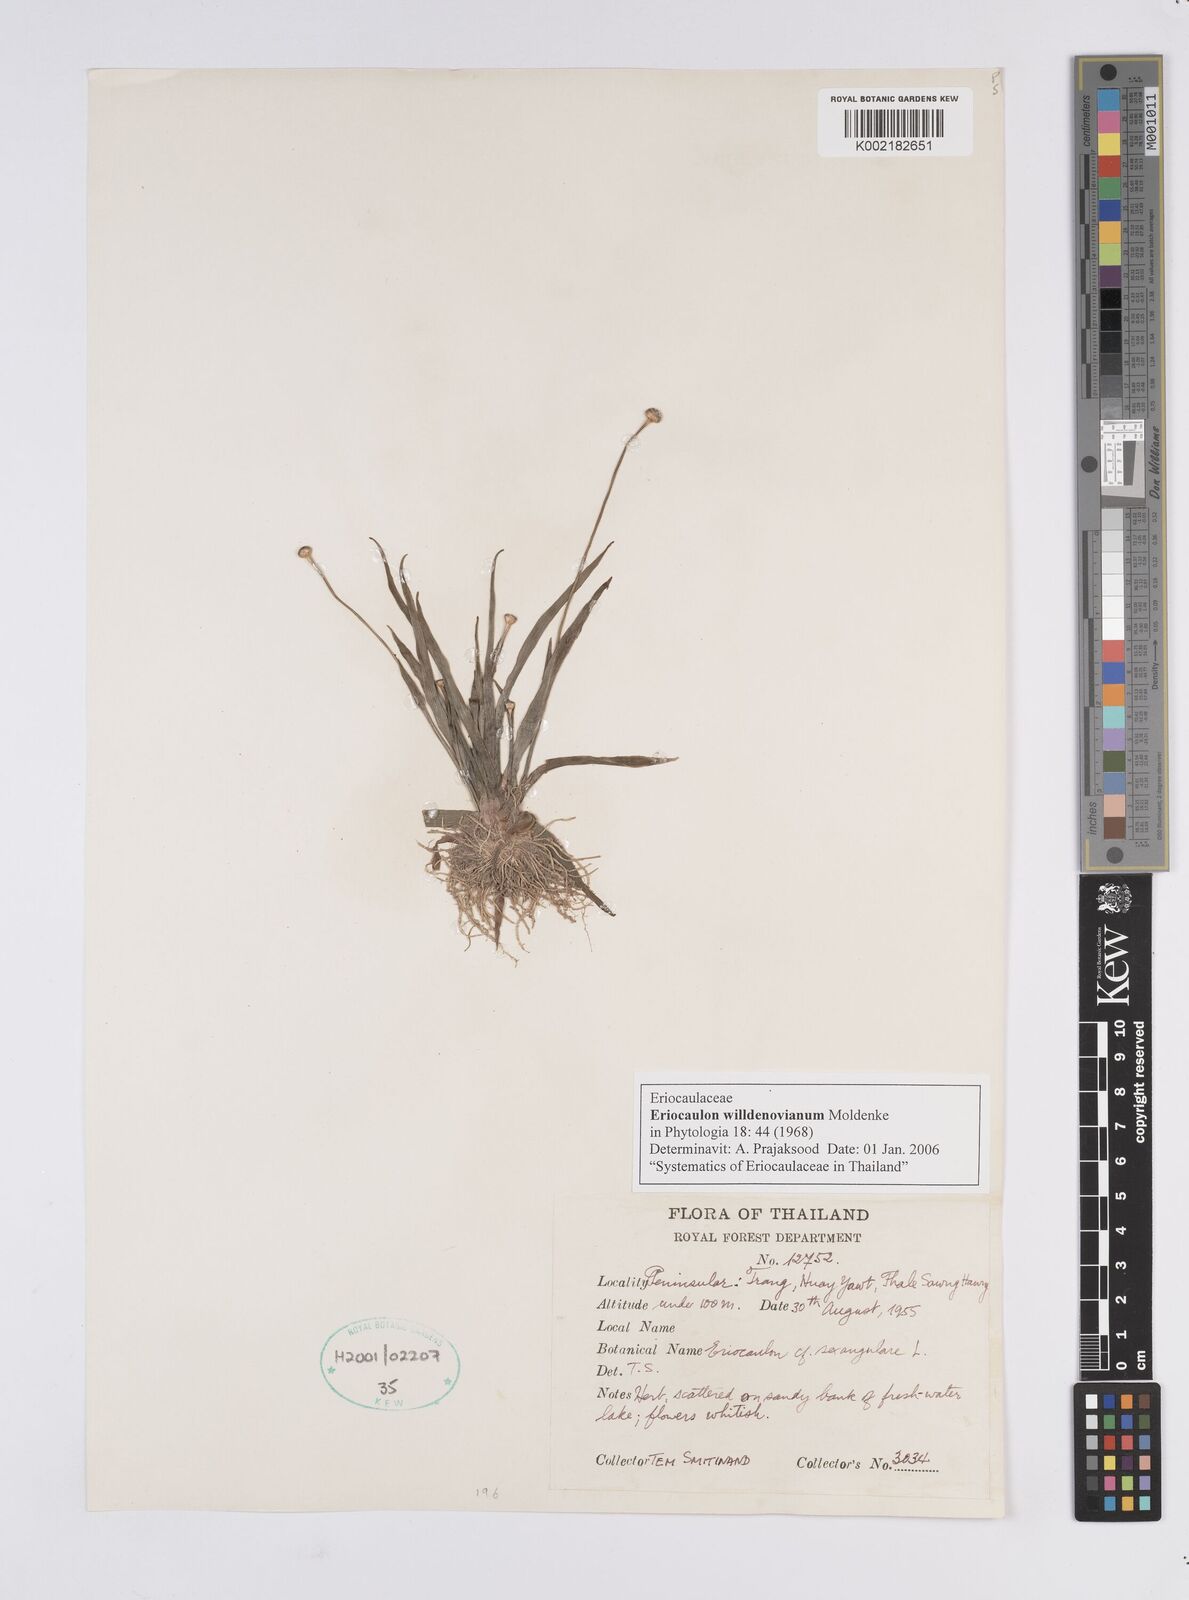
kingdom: Plantae
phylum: Tracheophyta
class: Liliopsida
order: Poales
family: Eriocaulaceae
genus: Eriocaulon
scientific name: Eriocaulon willdenovianum
